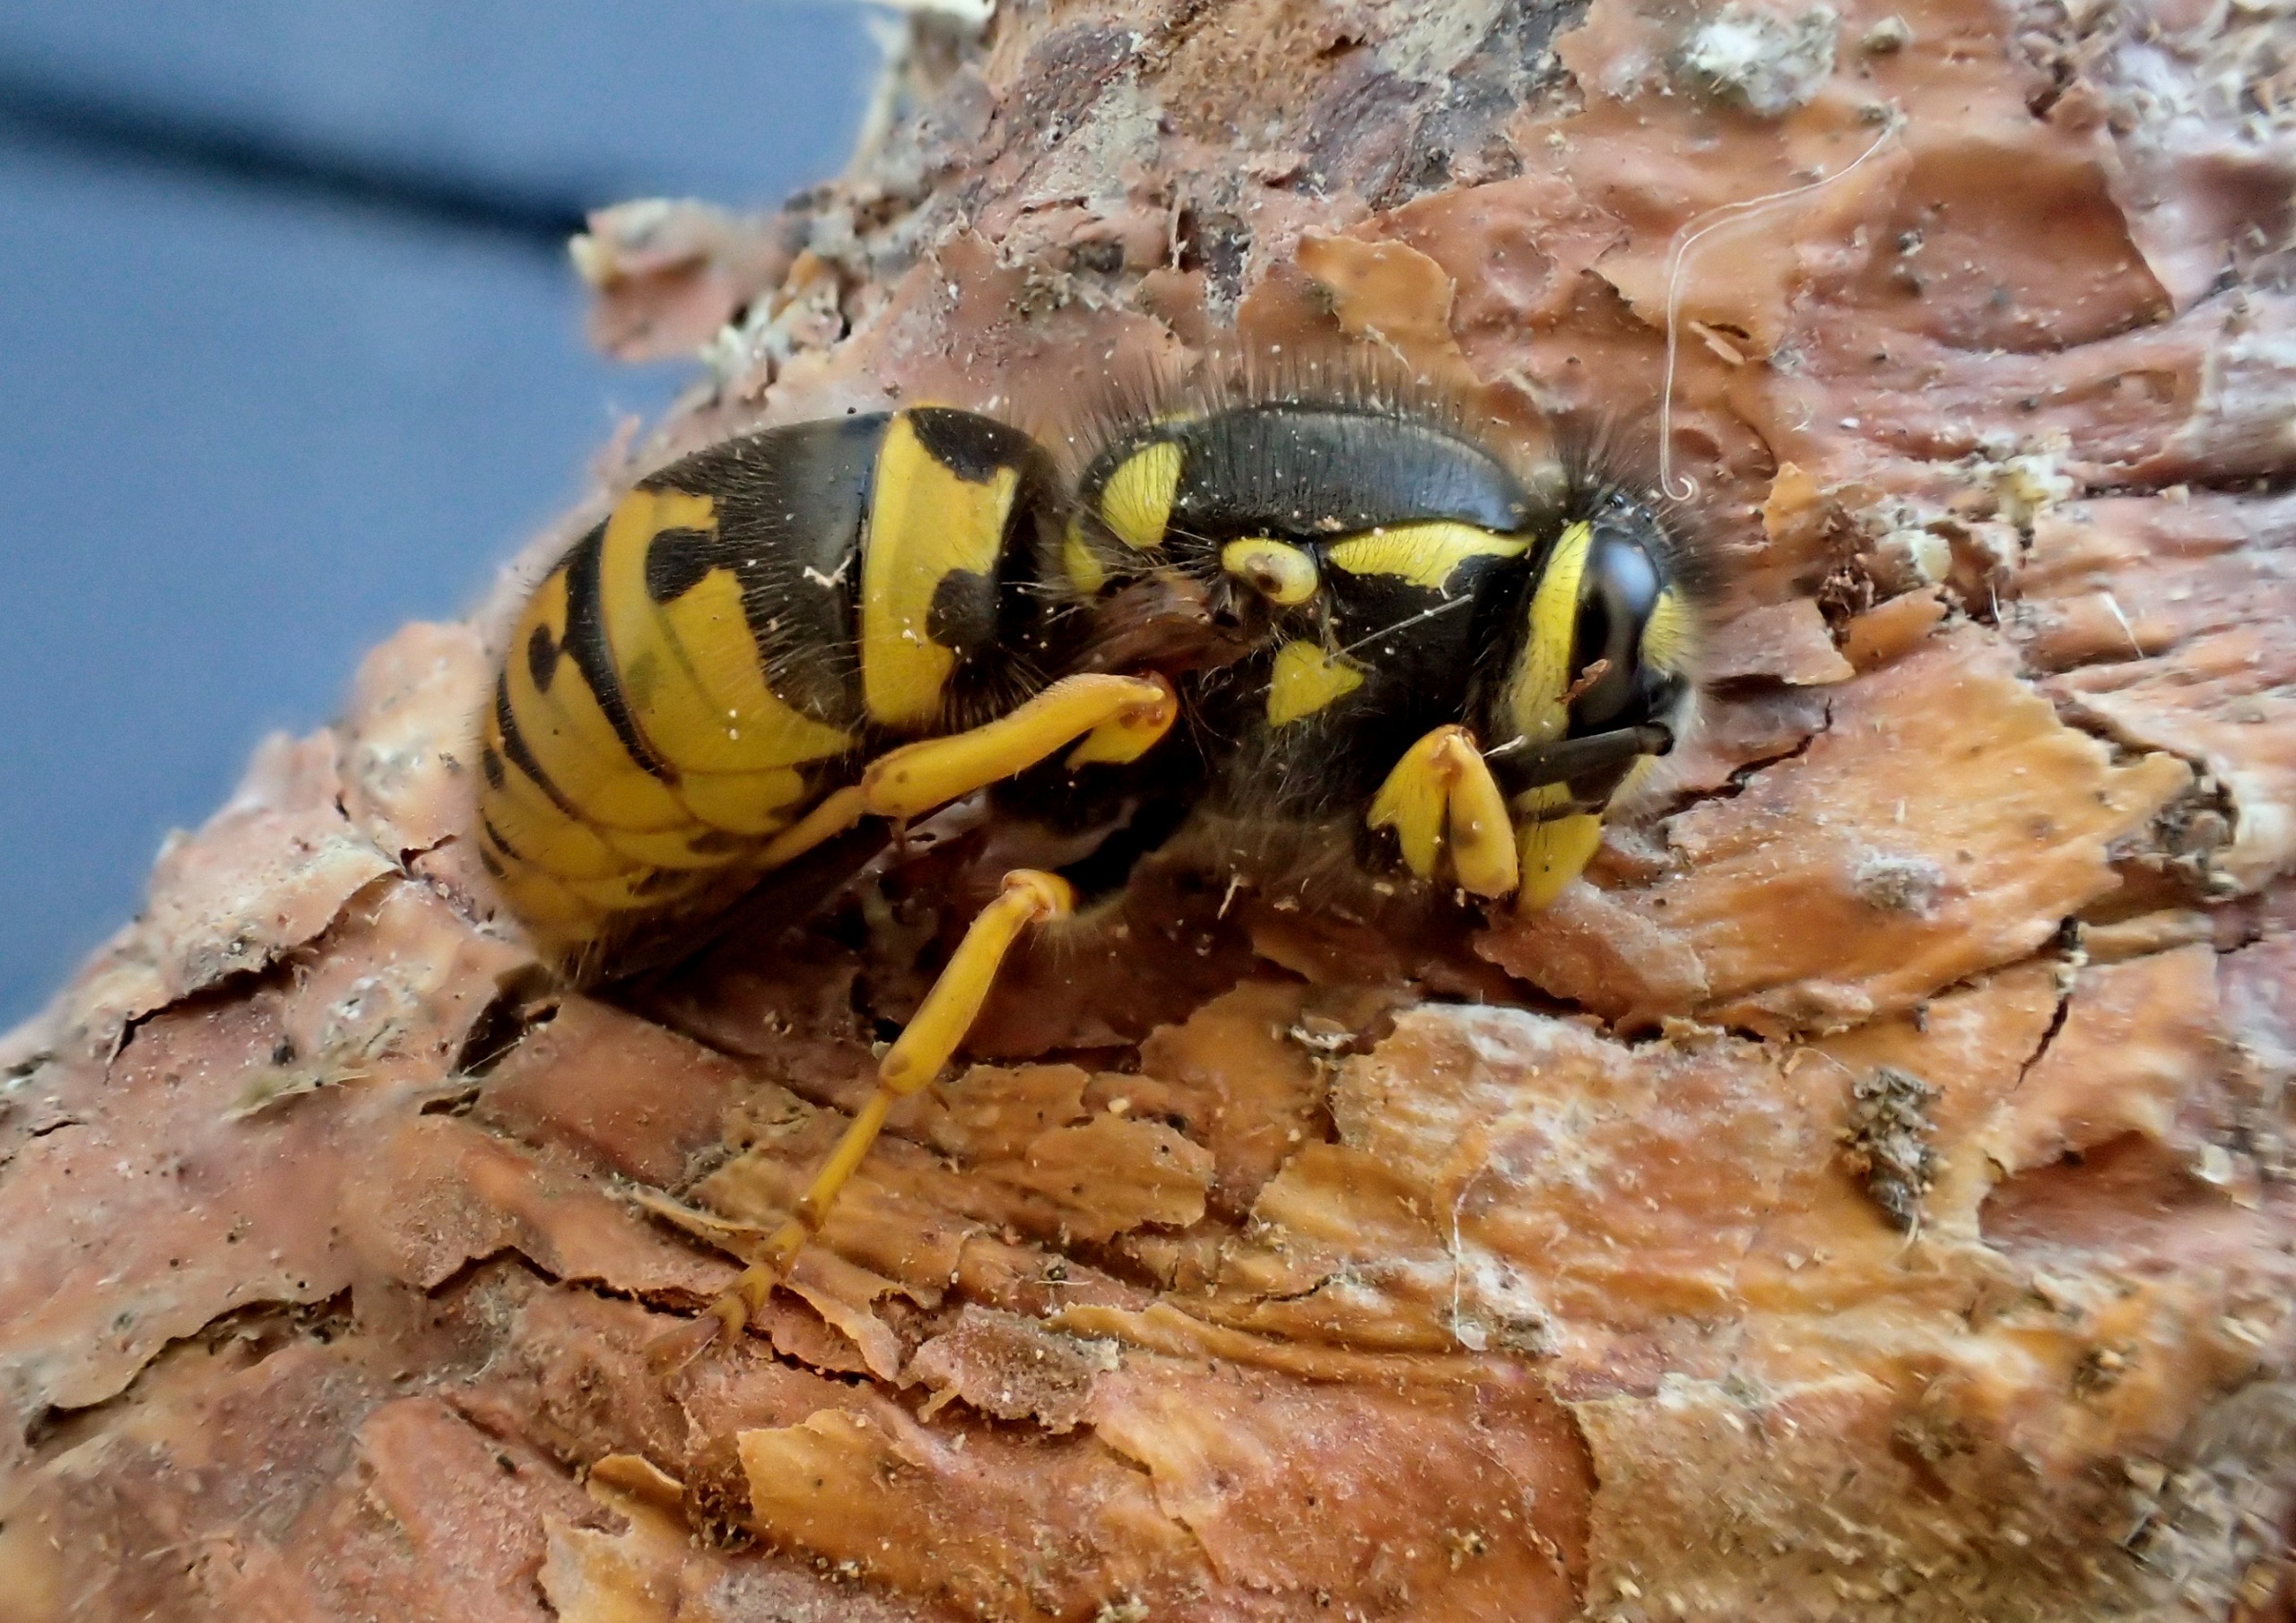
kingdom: Animalia
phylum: Arthropoda
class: Insecta
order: Hymenoptera
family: Vespidae
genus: Vespula
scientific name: Vespula germanica
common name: Tysk gedehams
